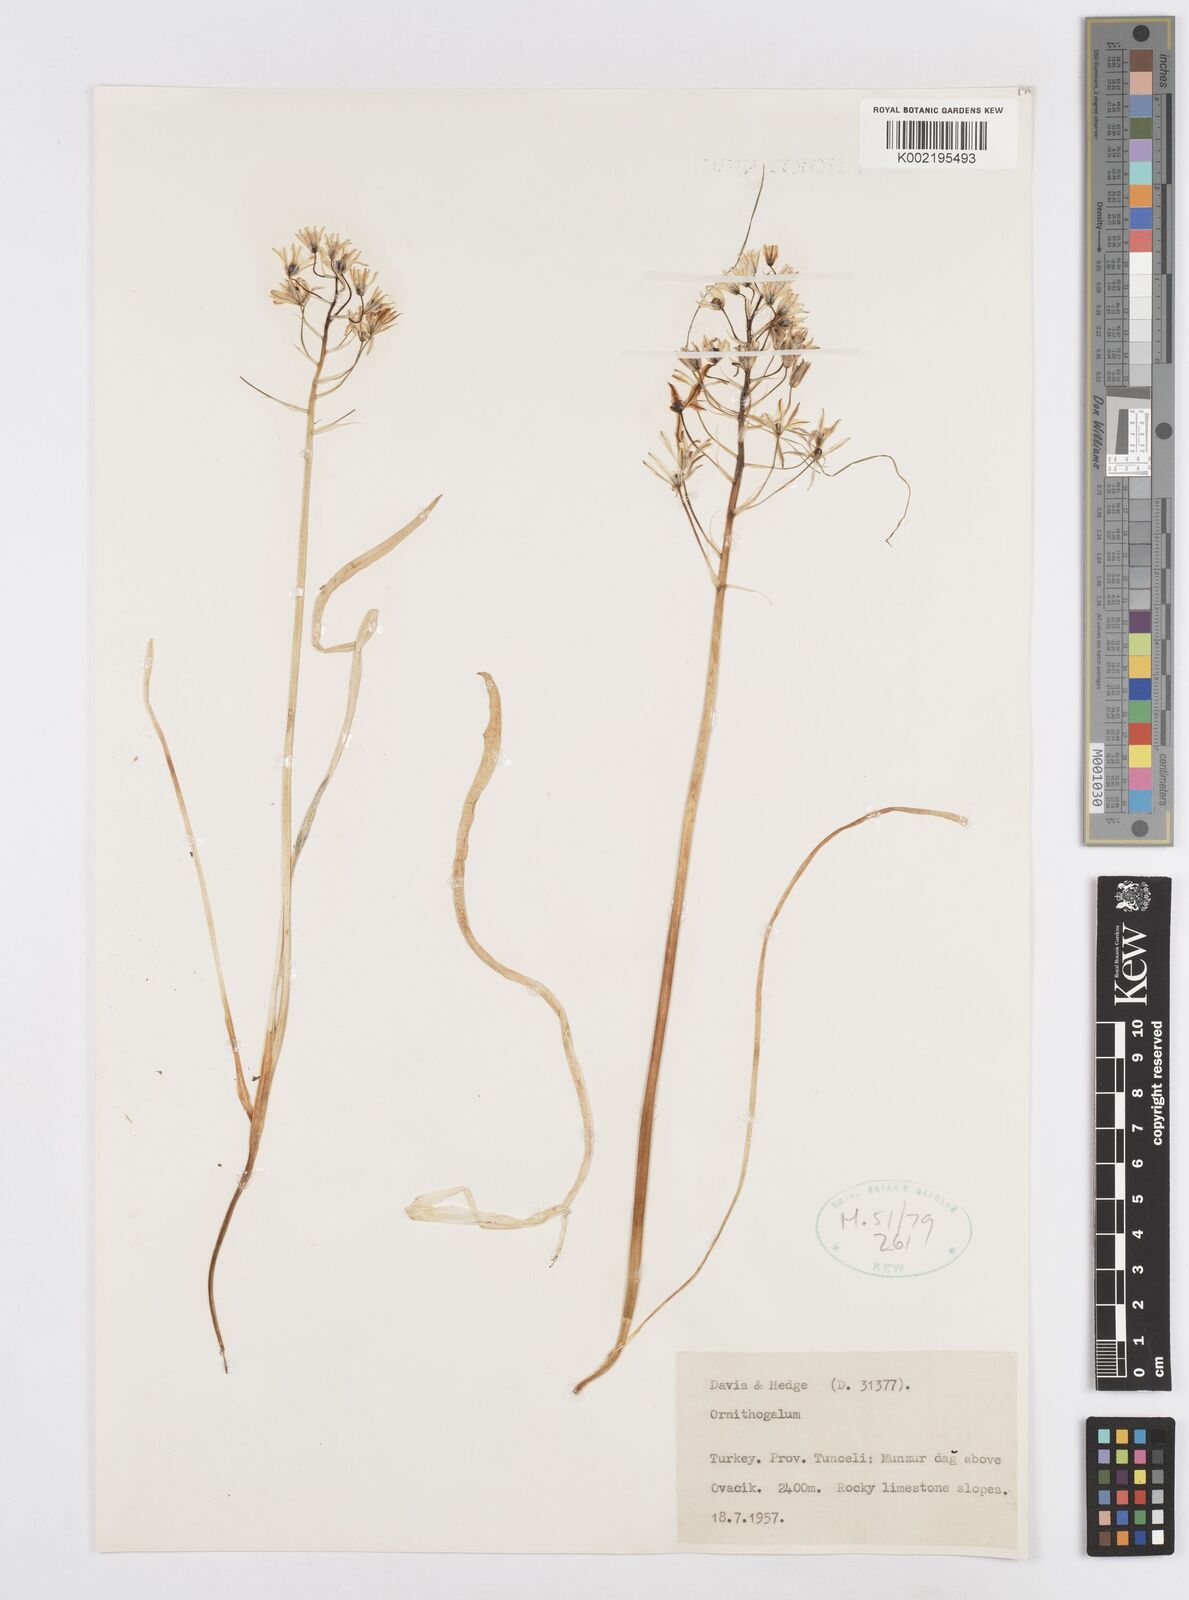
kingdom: Plantae
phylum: Tracheophyta
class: Liliopsida
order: Asparagales
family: Asparagaceae
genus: Ornithogalum
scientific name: Ornithogalum
